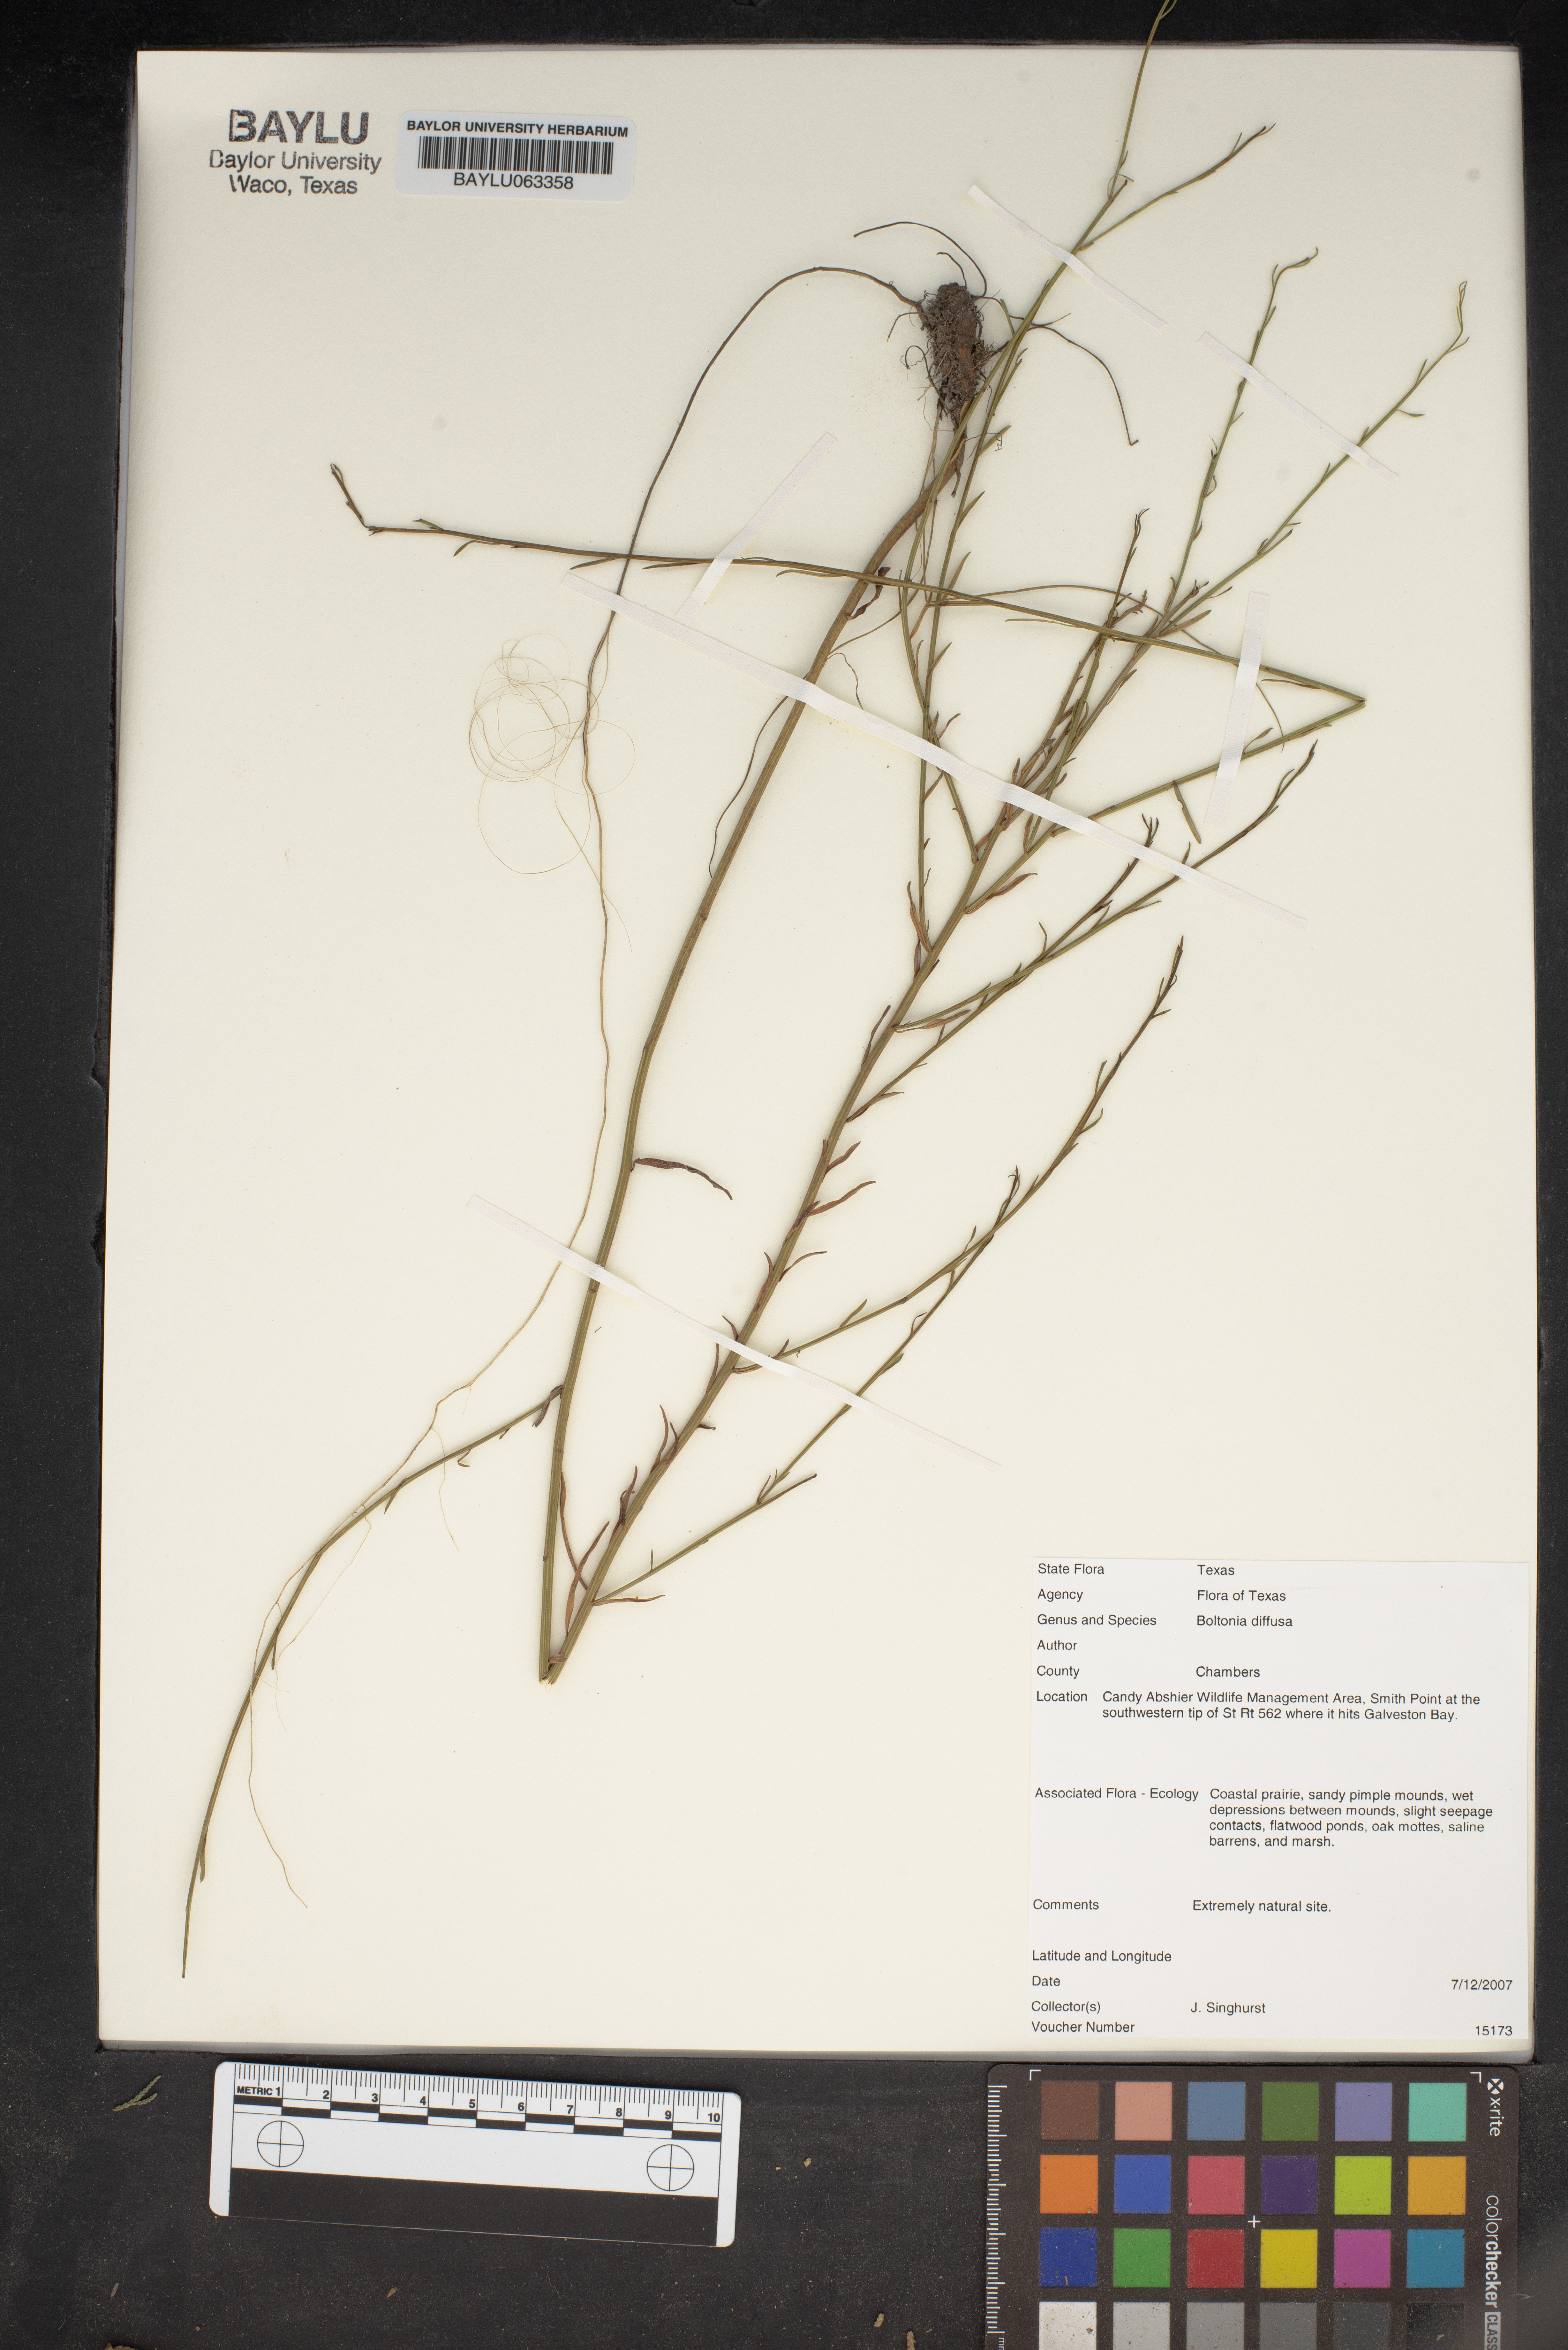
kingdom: Plantae
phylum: Tracheophyta
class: Magnoliopsida
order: Asterales
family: Asteraceae
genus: Boltonia
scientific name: Boltonia diffusa
